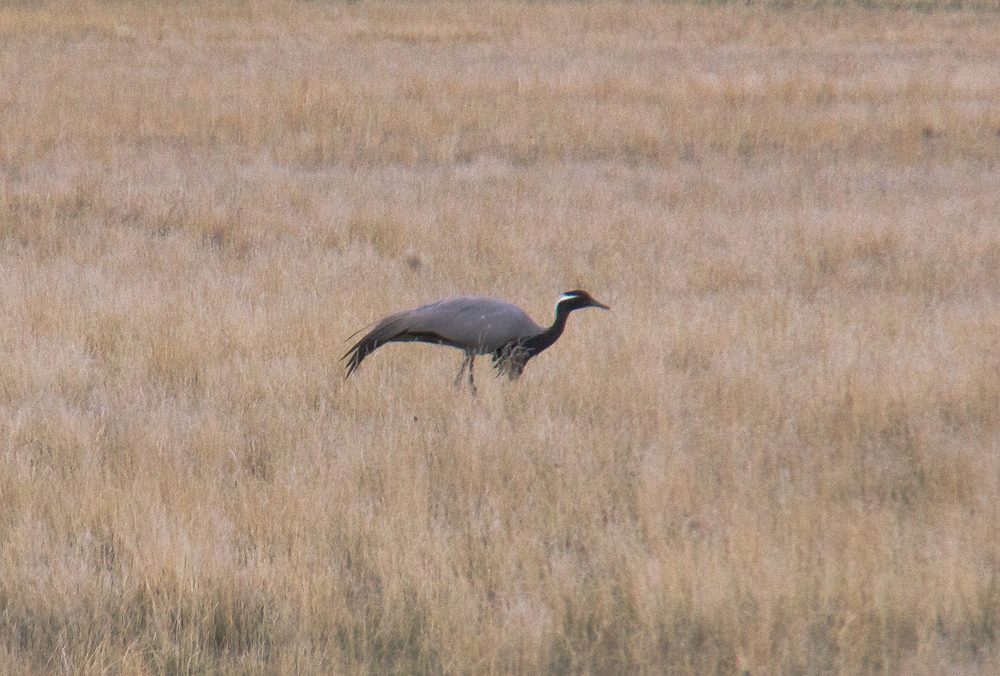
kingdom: Animalia
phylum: Chordata
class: Aves
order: Gruiformes
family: Gruidae
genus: Anthropoides
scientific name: Anthropoides virgo
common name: Demoiselle crane
